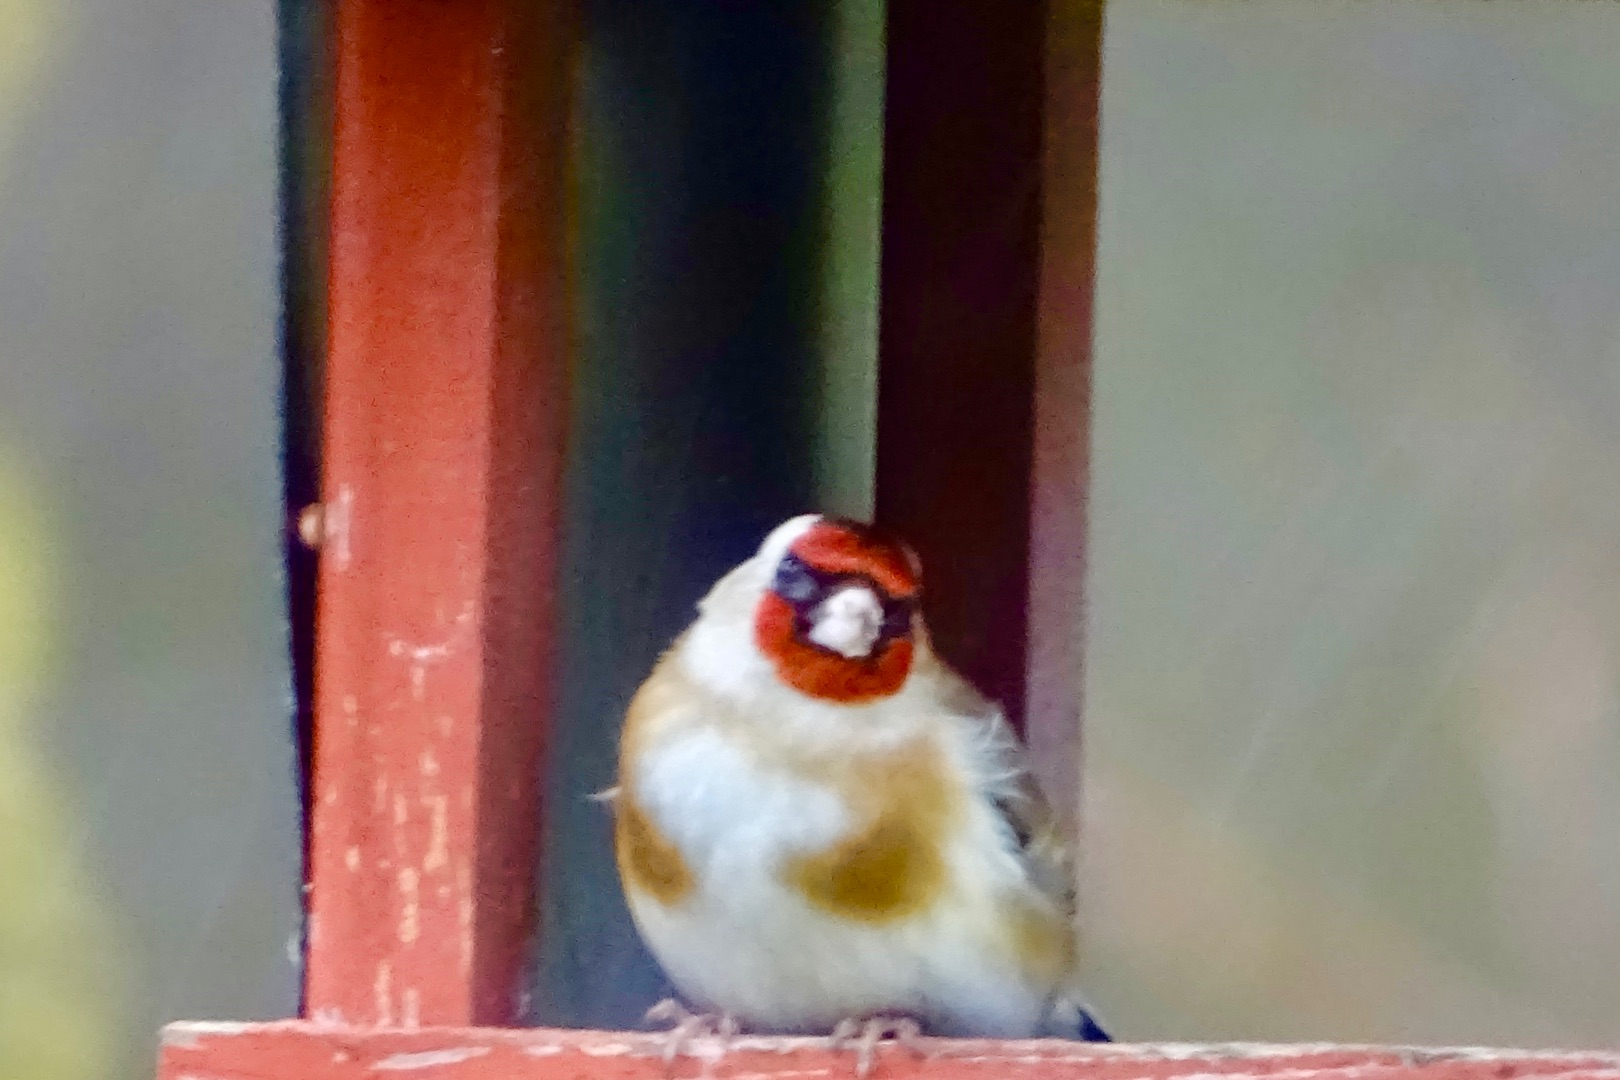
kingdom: Animalia
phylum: Chordata
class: Aves
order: Passeriformes
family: Fringillidae
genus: Carduelis
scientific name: Carduelis carduelis
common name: Stillits
